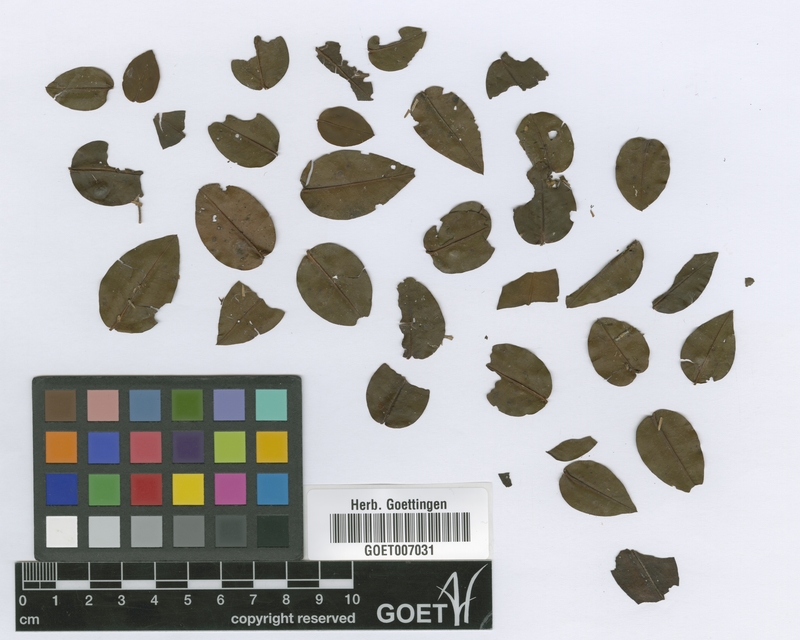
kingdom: Plantae
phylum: Tracheophyta
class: Magnoliopsida
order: Myrtales
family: Melastomataceae
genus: Mouriri
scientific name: Mouriri myrtilloides
